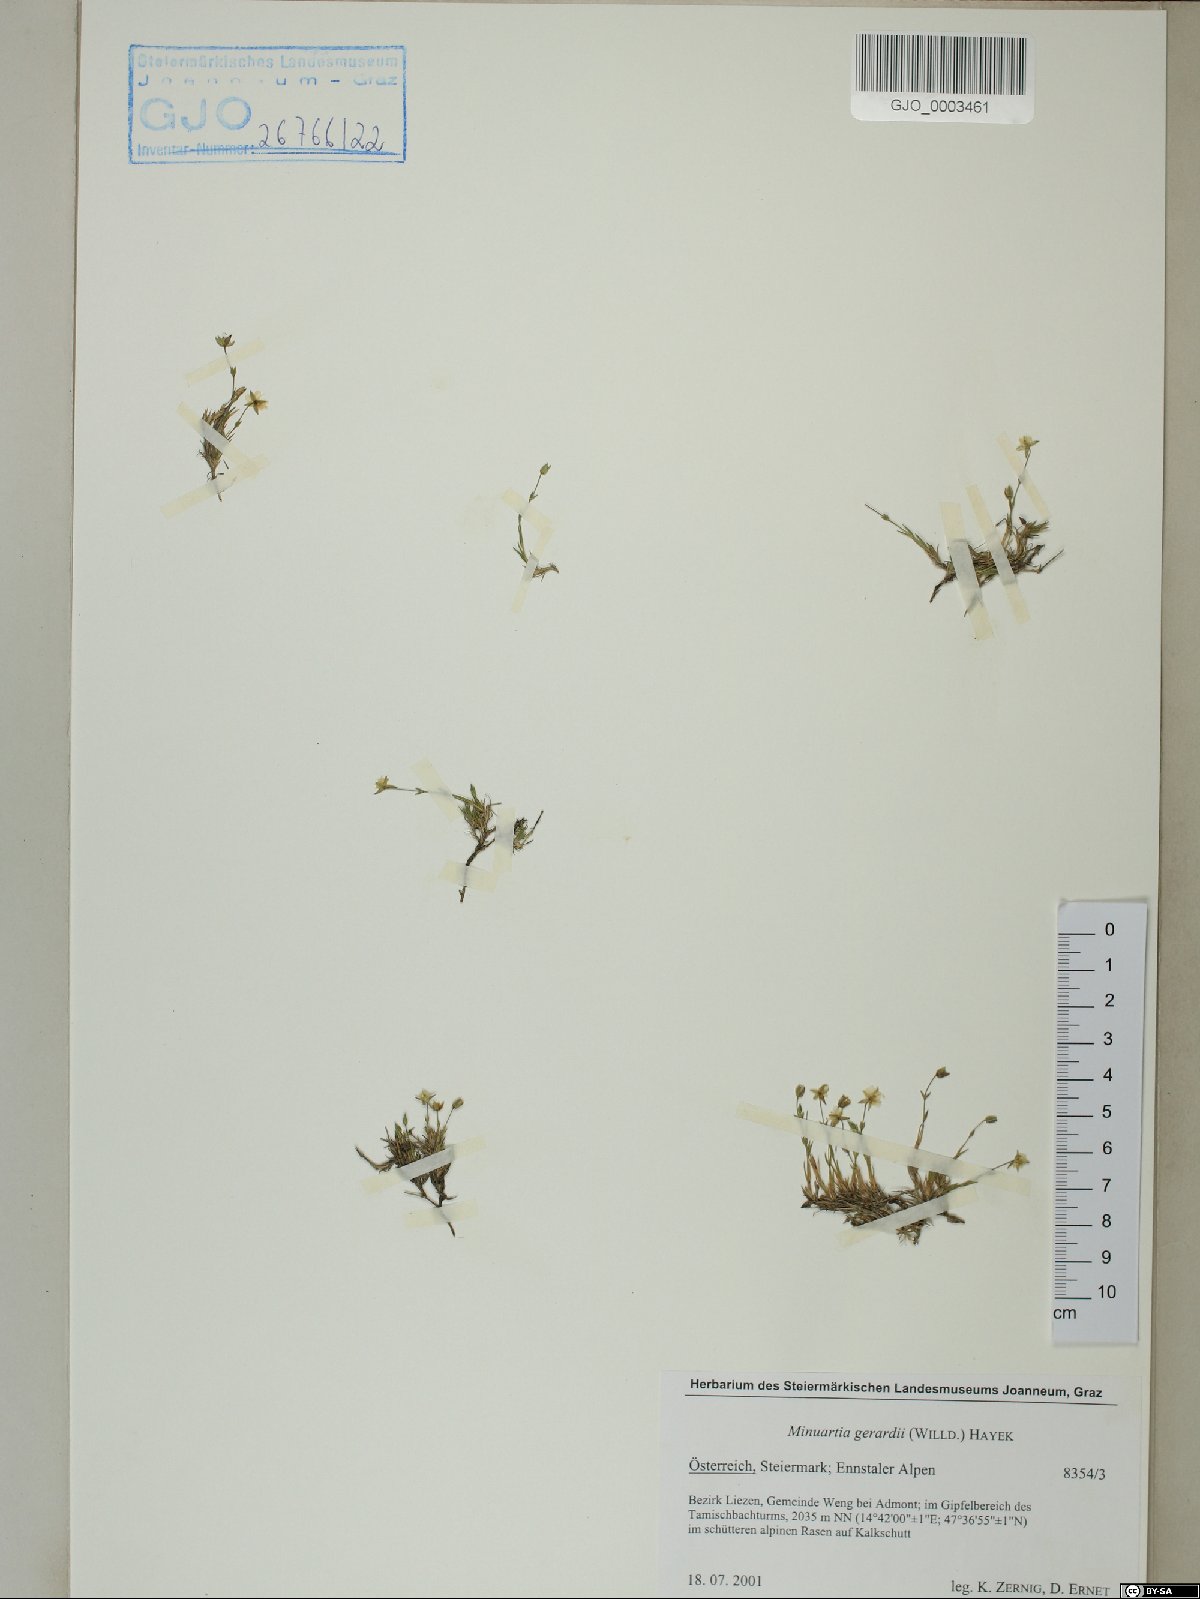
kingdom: Plantae
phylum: Tracheophyta
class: Magnoliopsida
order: Caryophyllales
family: Caryophyllaceae
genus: Sabulina
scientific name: Sabulina verna
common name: Spring sandwort
